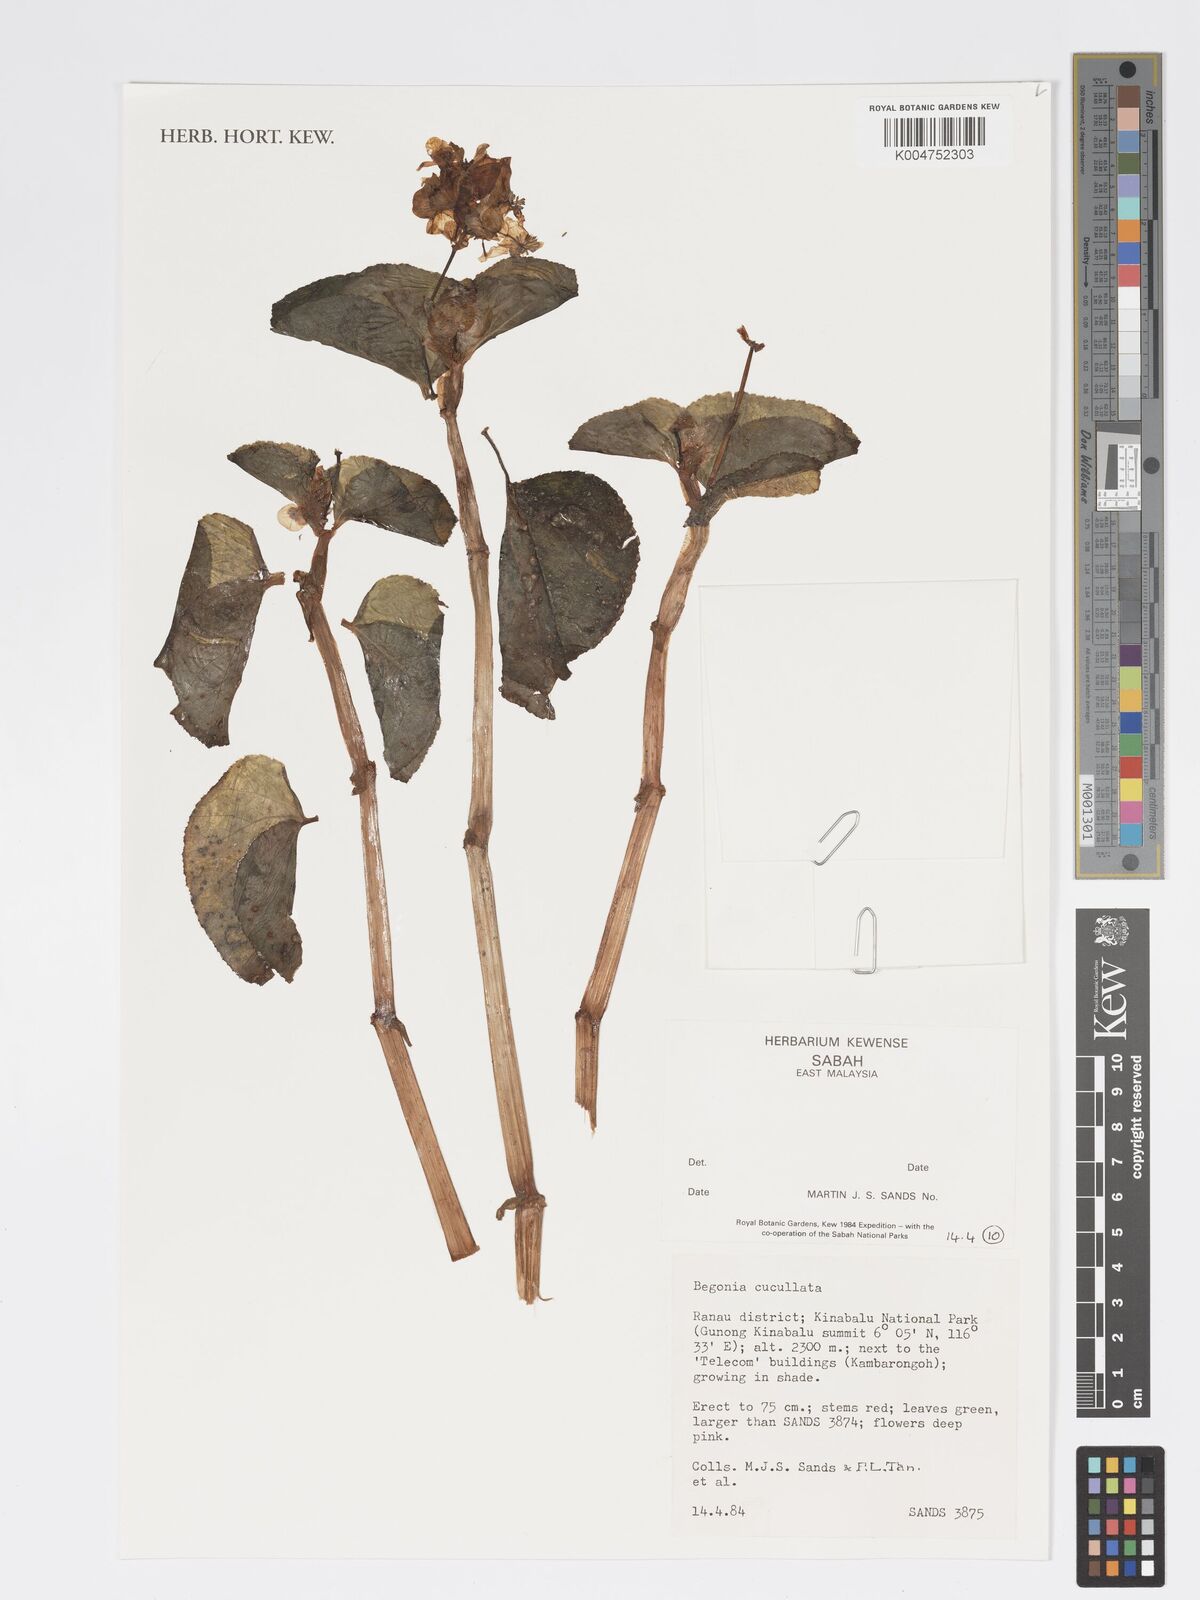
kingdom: Plantae
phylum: Tracheophyta
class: Magnoliopsida
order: Cucurbitales
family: Begoniaceae
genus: Begonia
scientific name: Begonia cucullata
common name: Clubbed begonia
